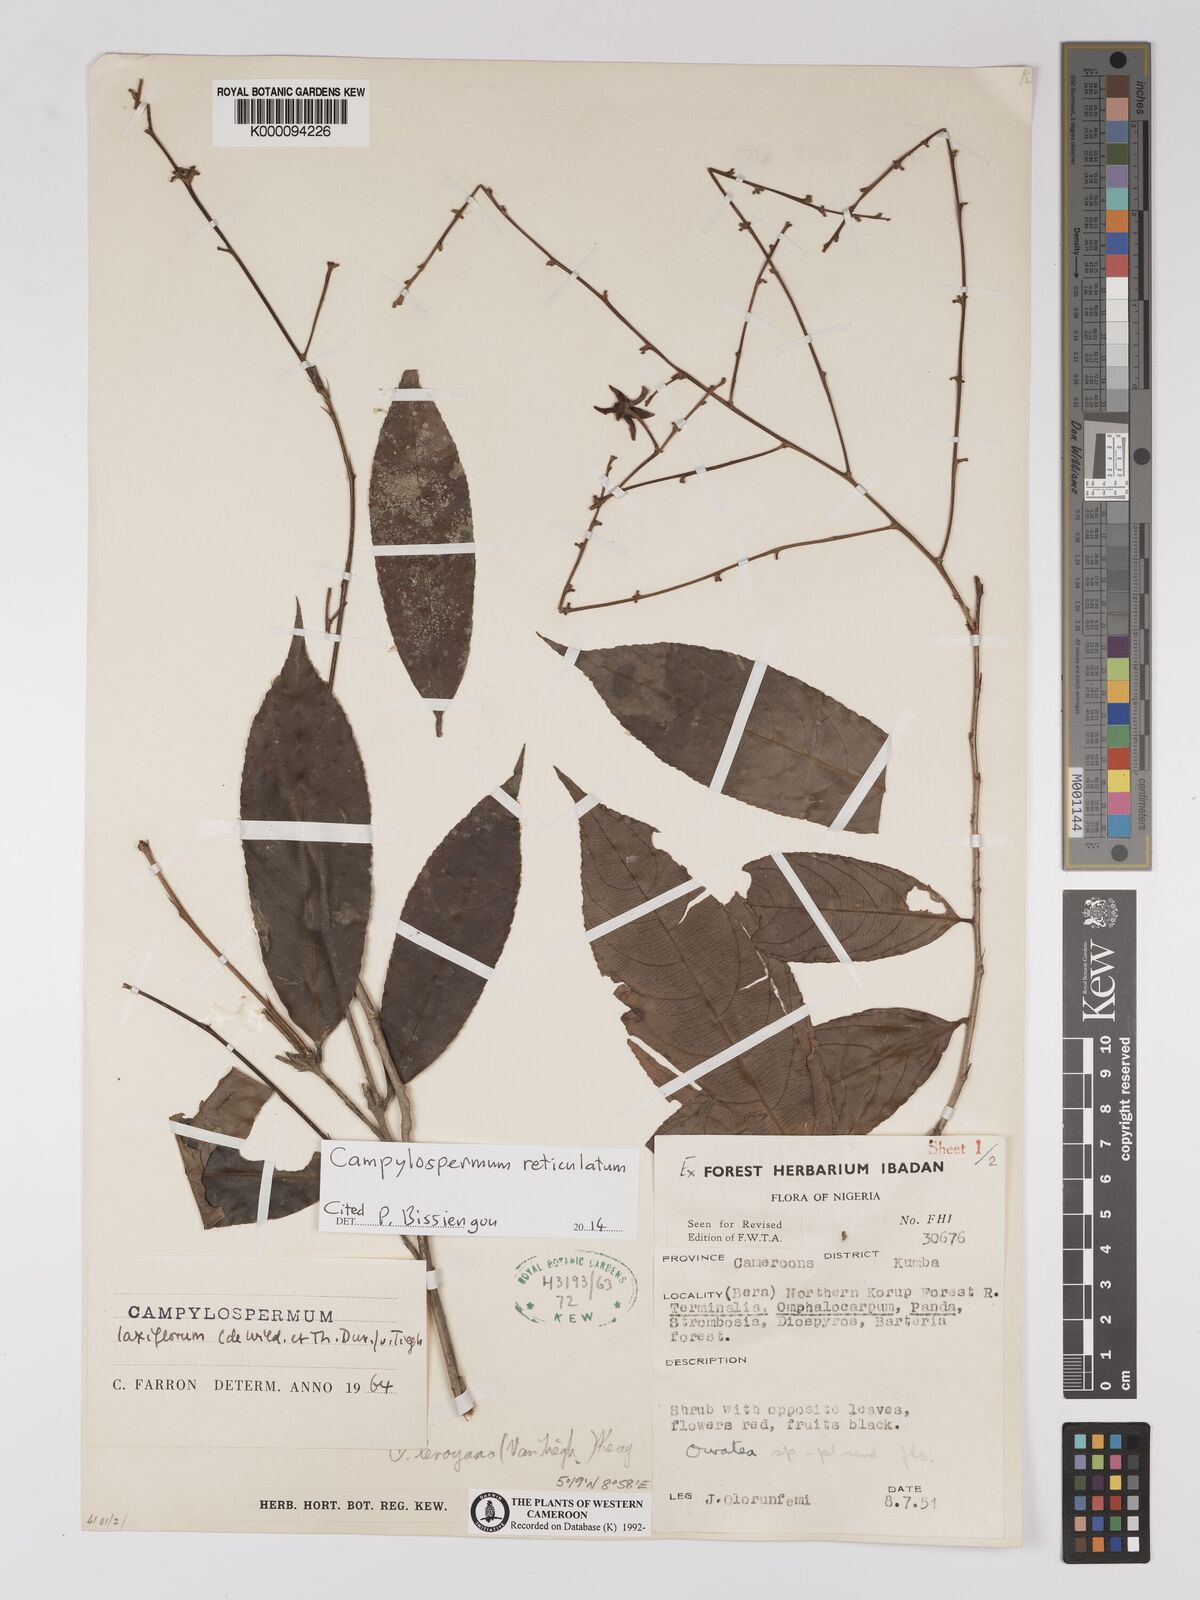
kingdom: Plantae
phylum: Tracheophyta
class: Magnoliopsida
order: Malpighiales
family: Ochnaceae
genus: Campylospermum
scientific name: Campylospermum laxiflorum
